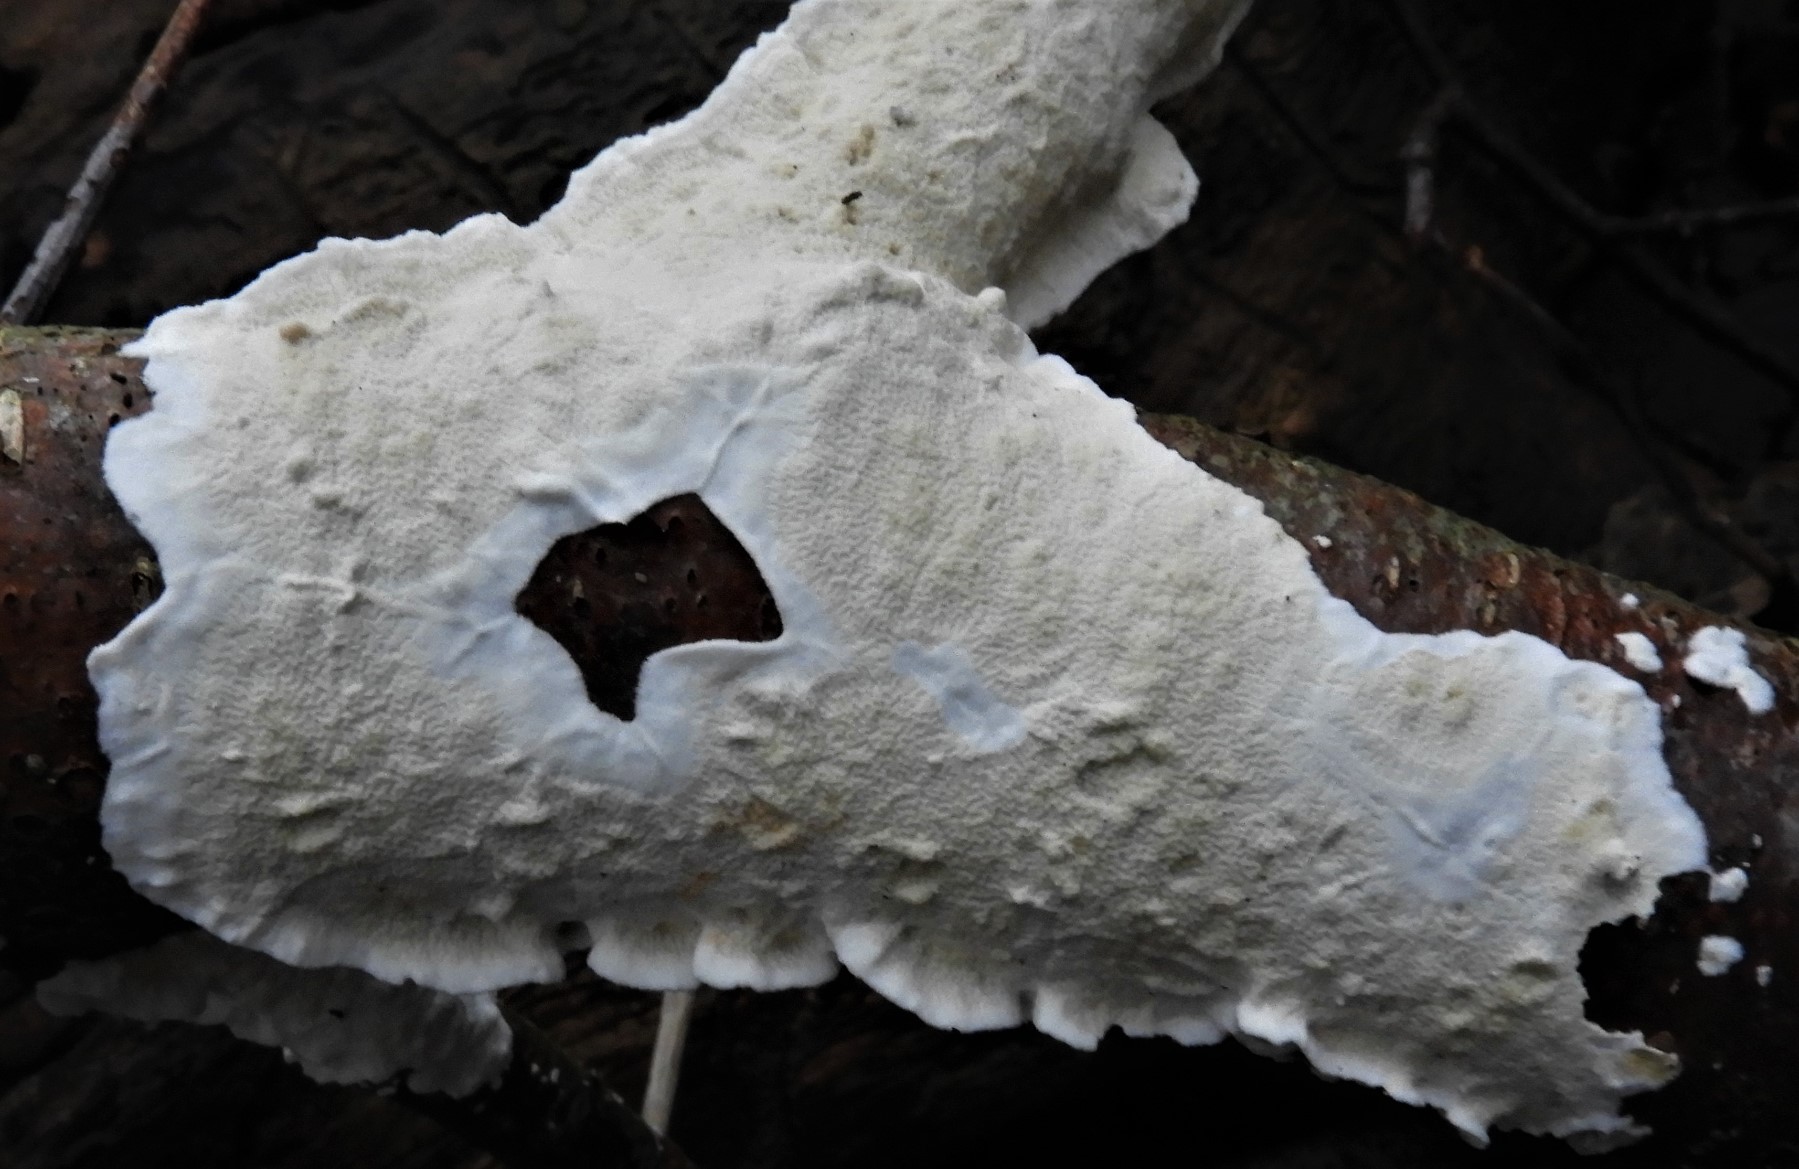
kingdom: Fungi
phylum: Basidiomycota
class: Agaricomycetes
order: Polyporales
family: Irpicaceae
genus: Byssomerulius
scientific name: Byssomerulius corium
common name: læder-åresvamp
